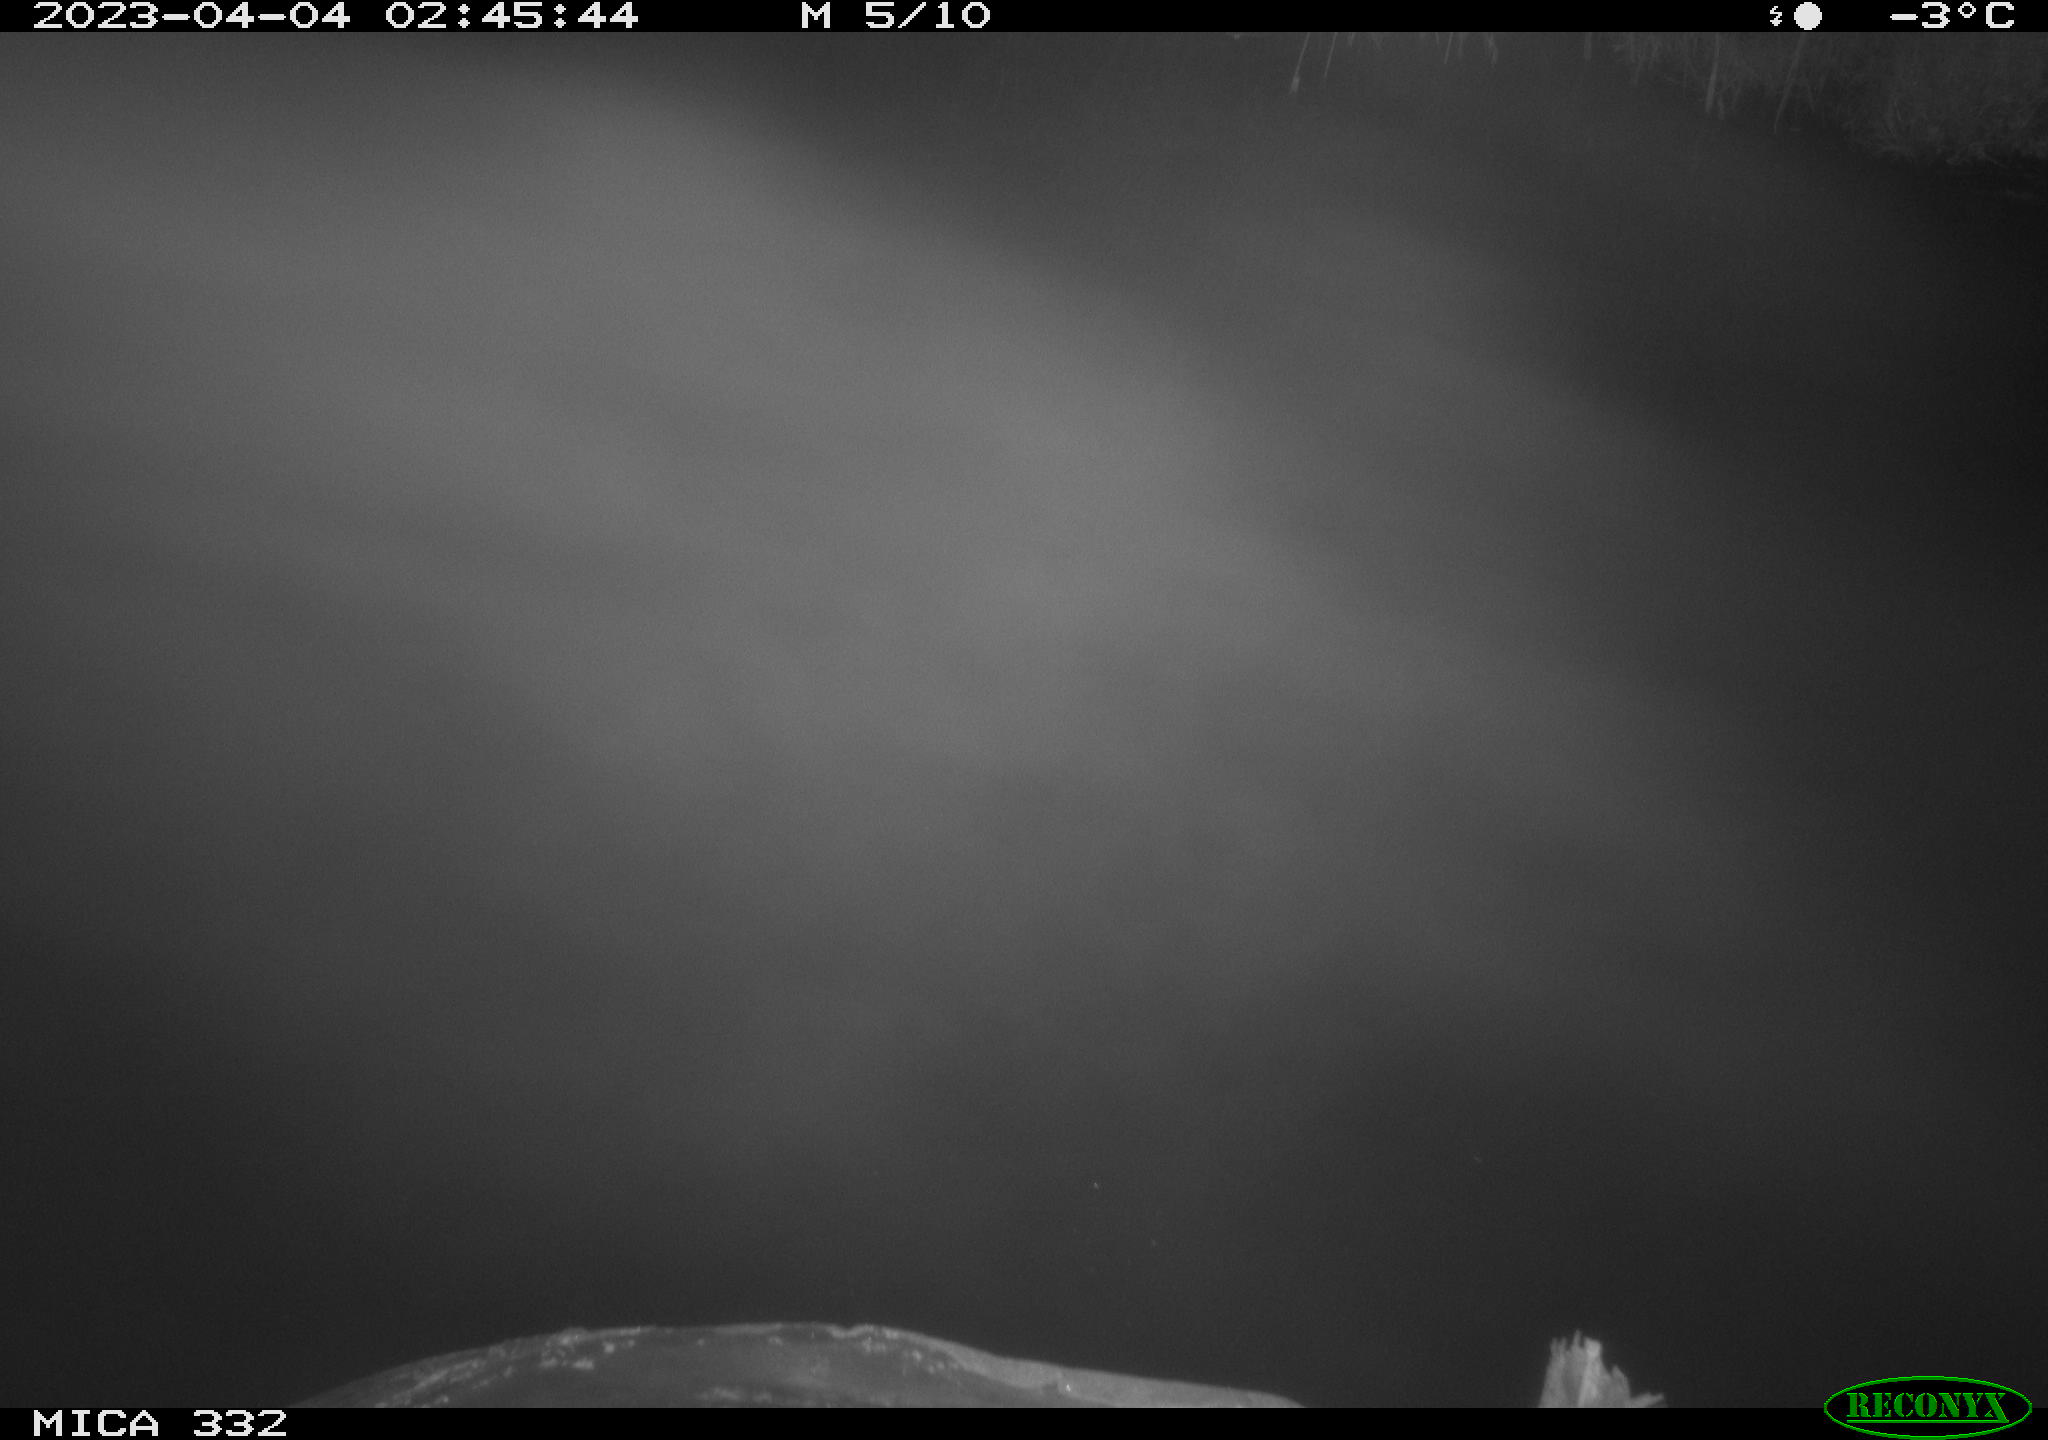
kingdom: Animalia
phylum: Chordata
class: Aves
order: Anseriformes
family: Anatidae
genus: Anas
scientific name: Anas
